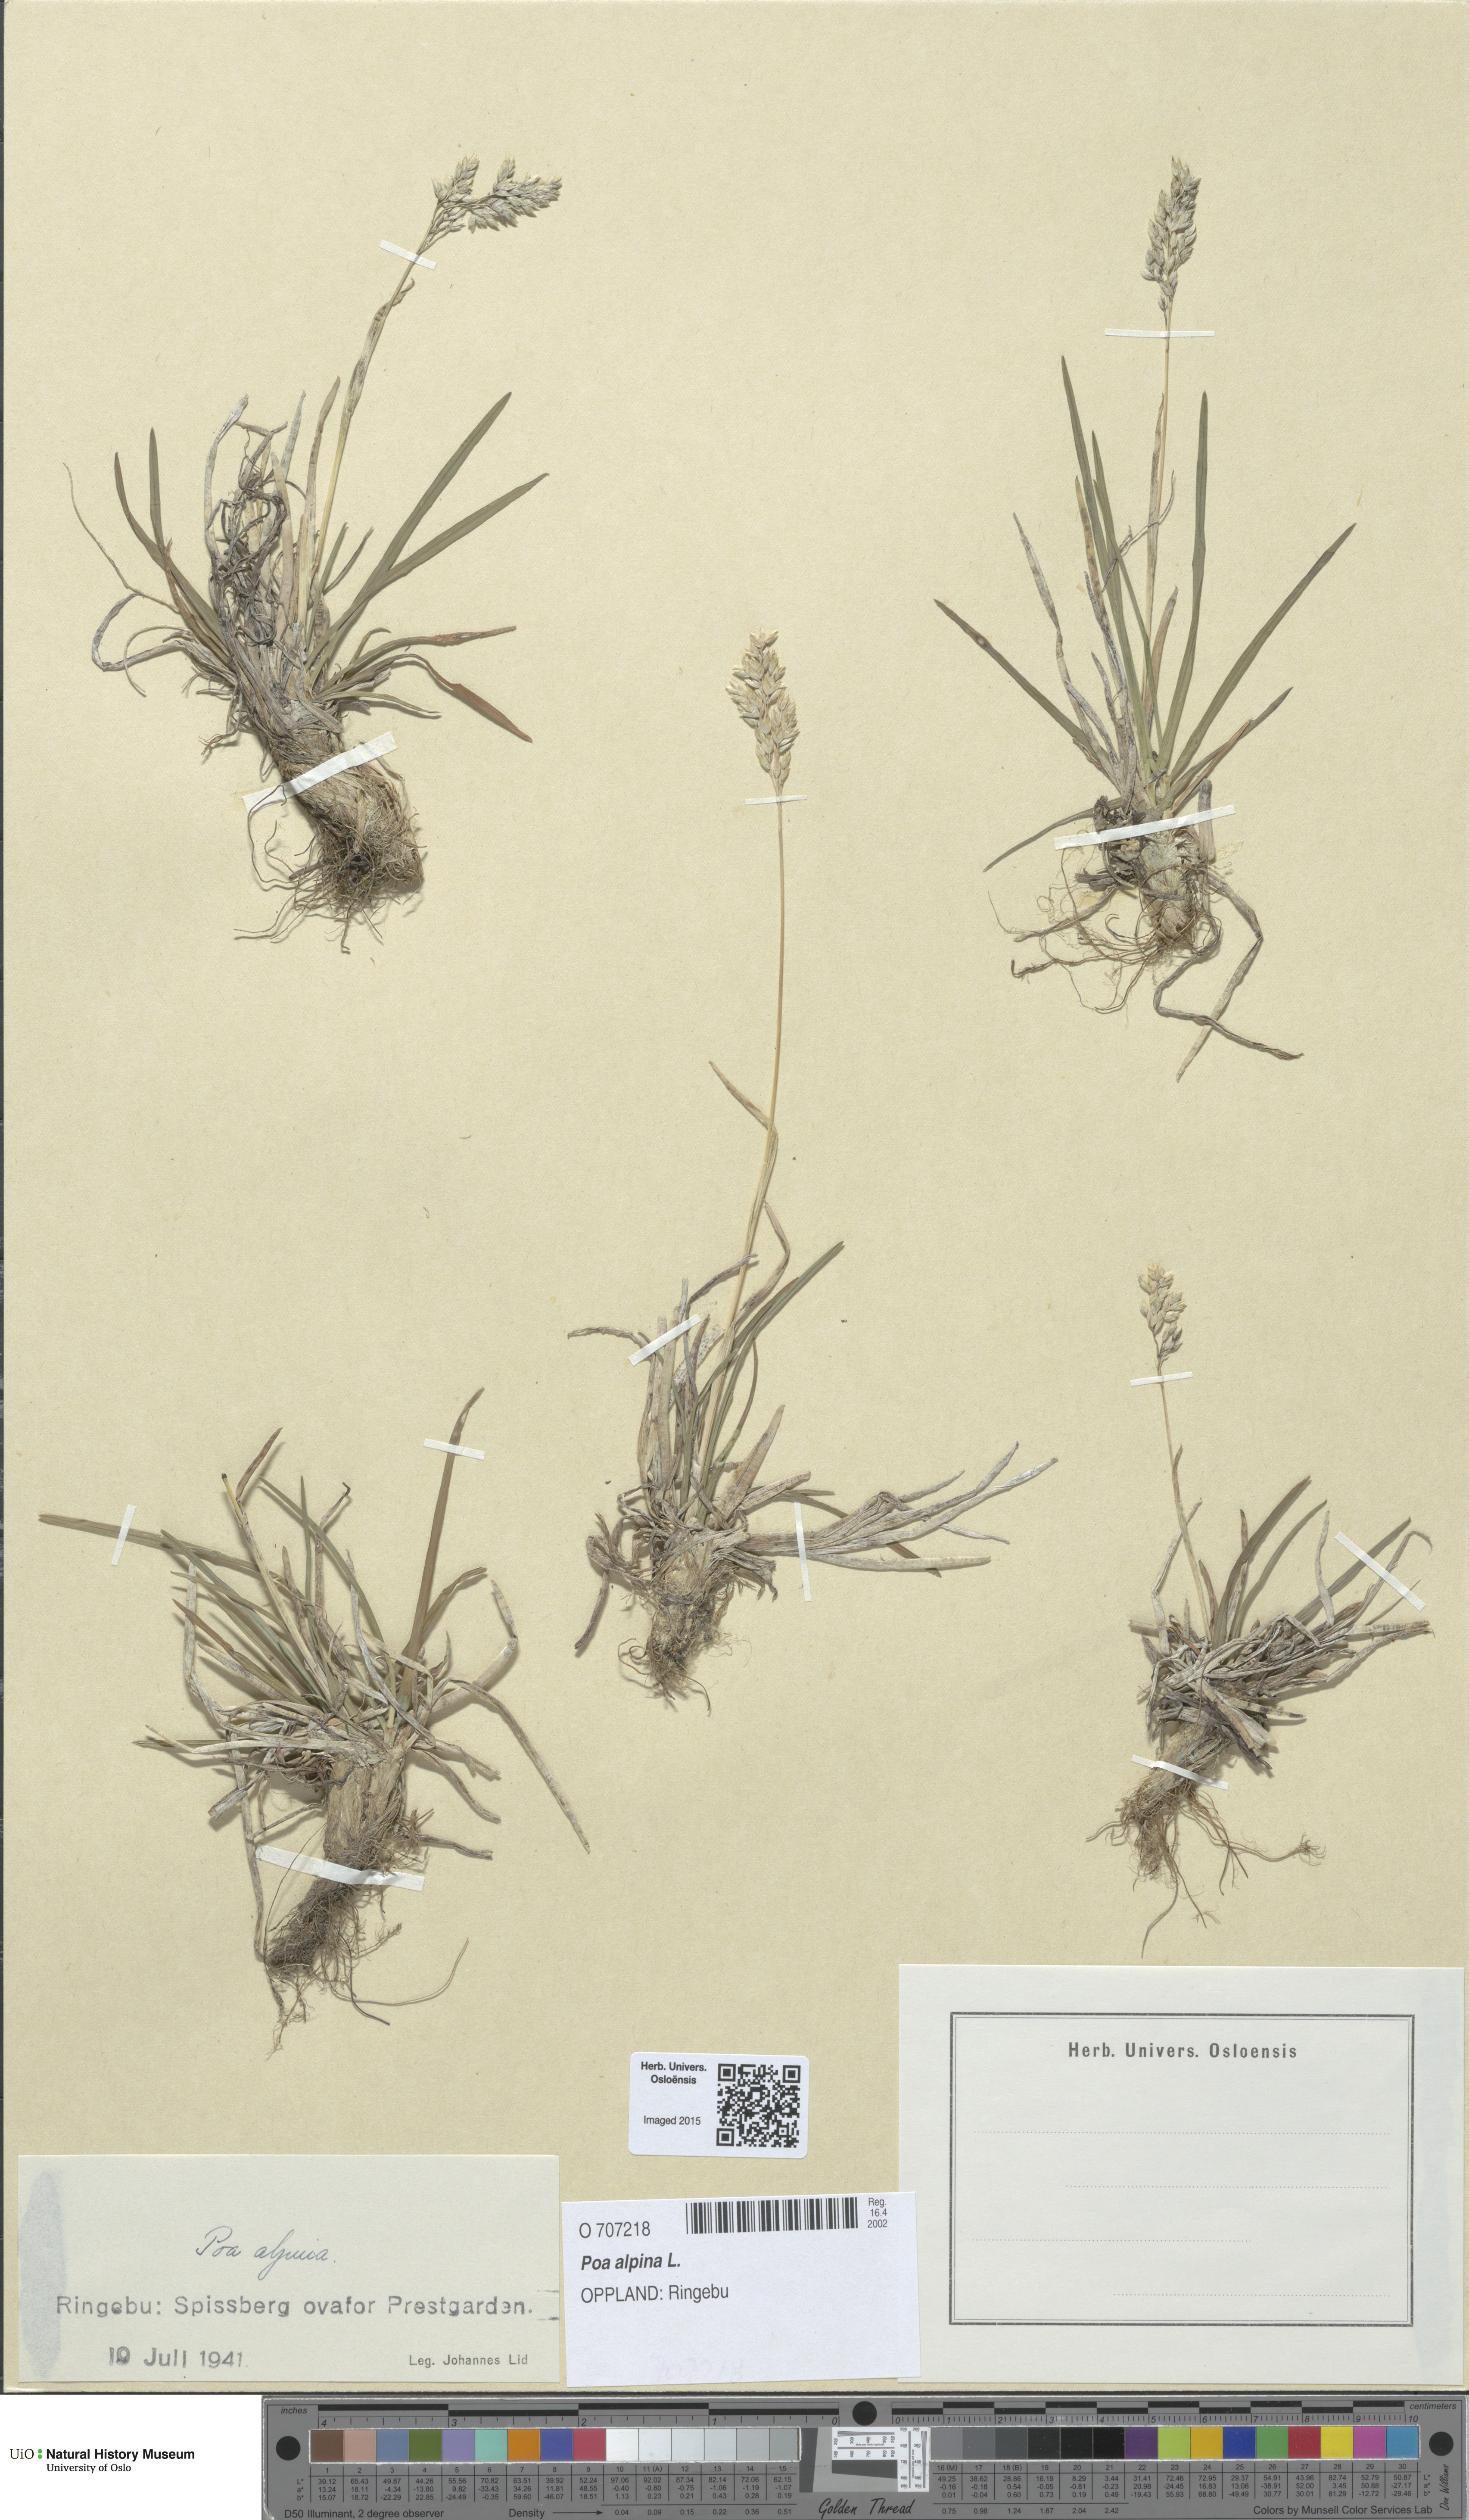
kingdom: Plantae
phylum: Tracheophyta
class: Liliopsida
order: Poales
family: Poaceae
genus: Poa
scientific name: Poa alpina
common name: Alpine bluegrass
